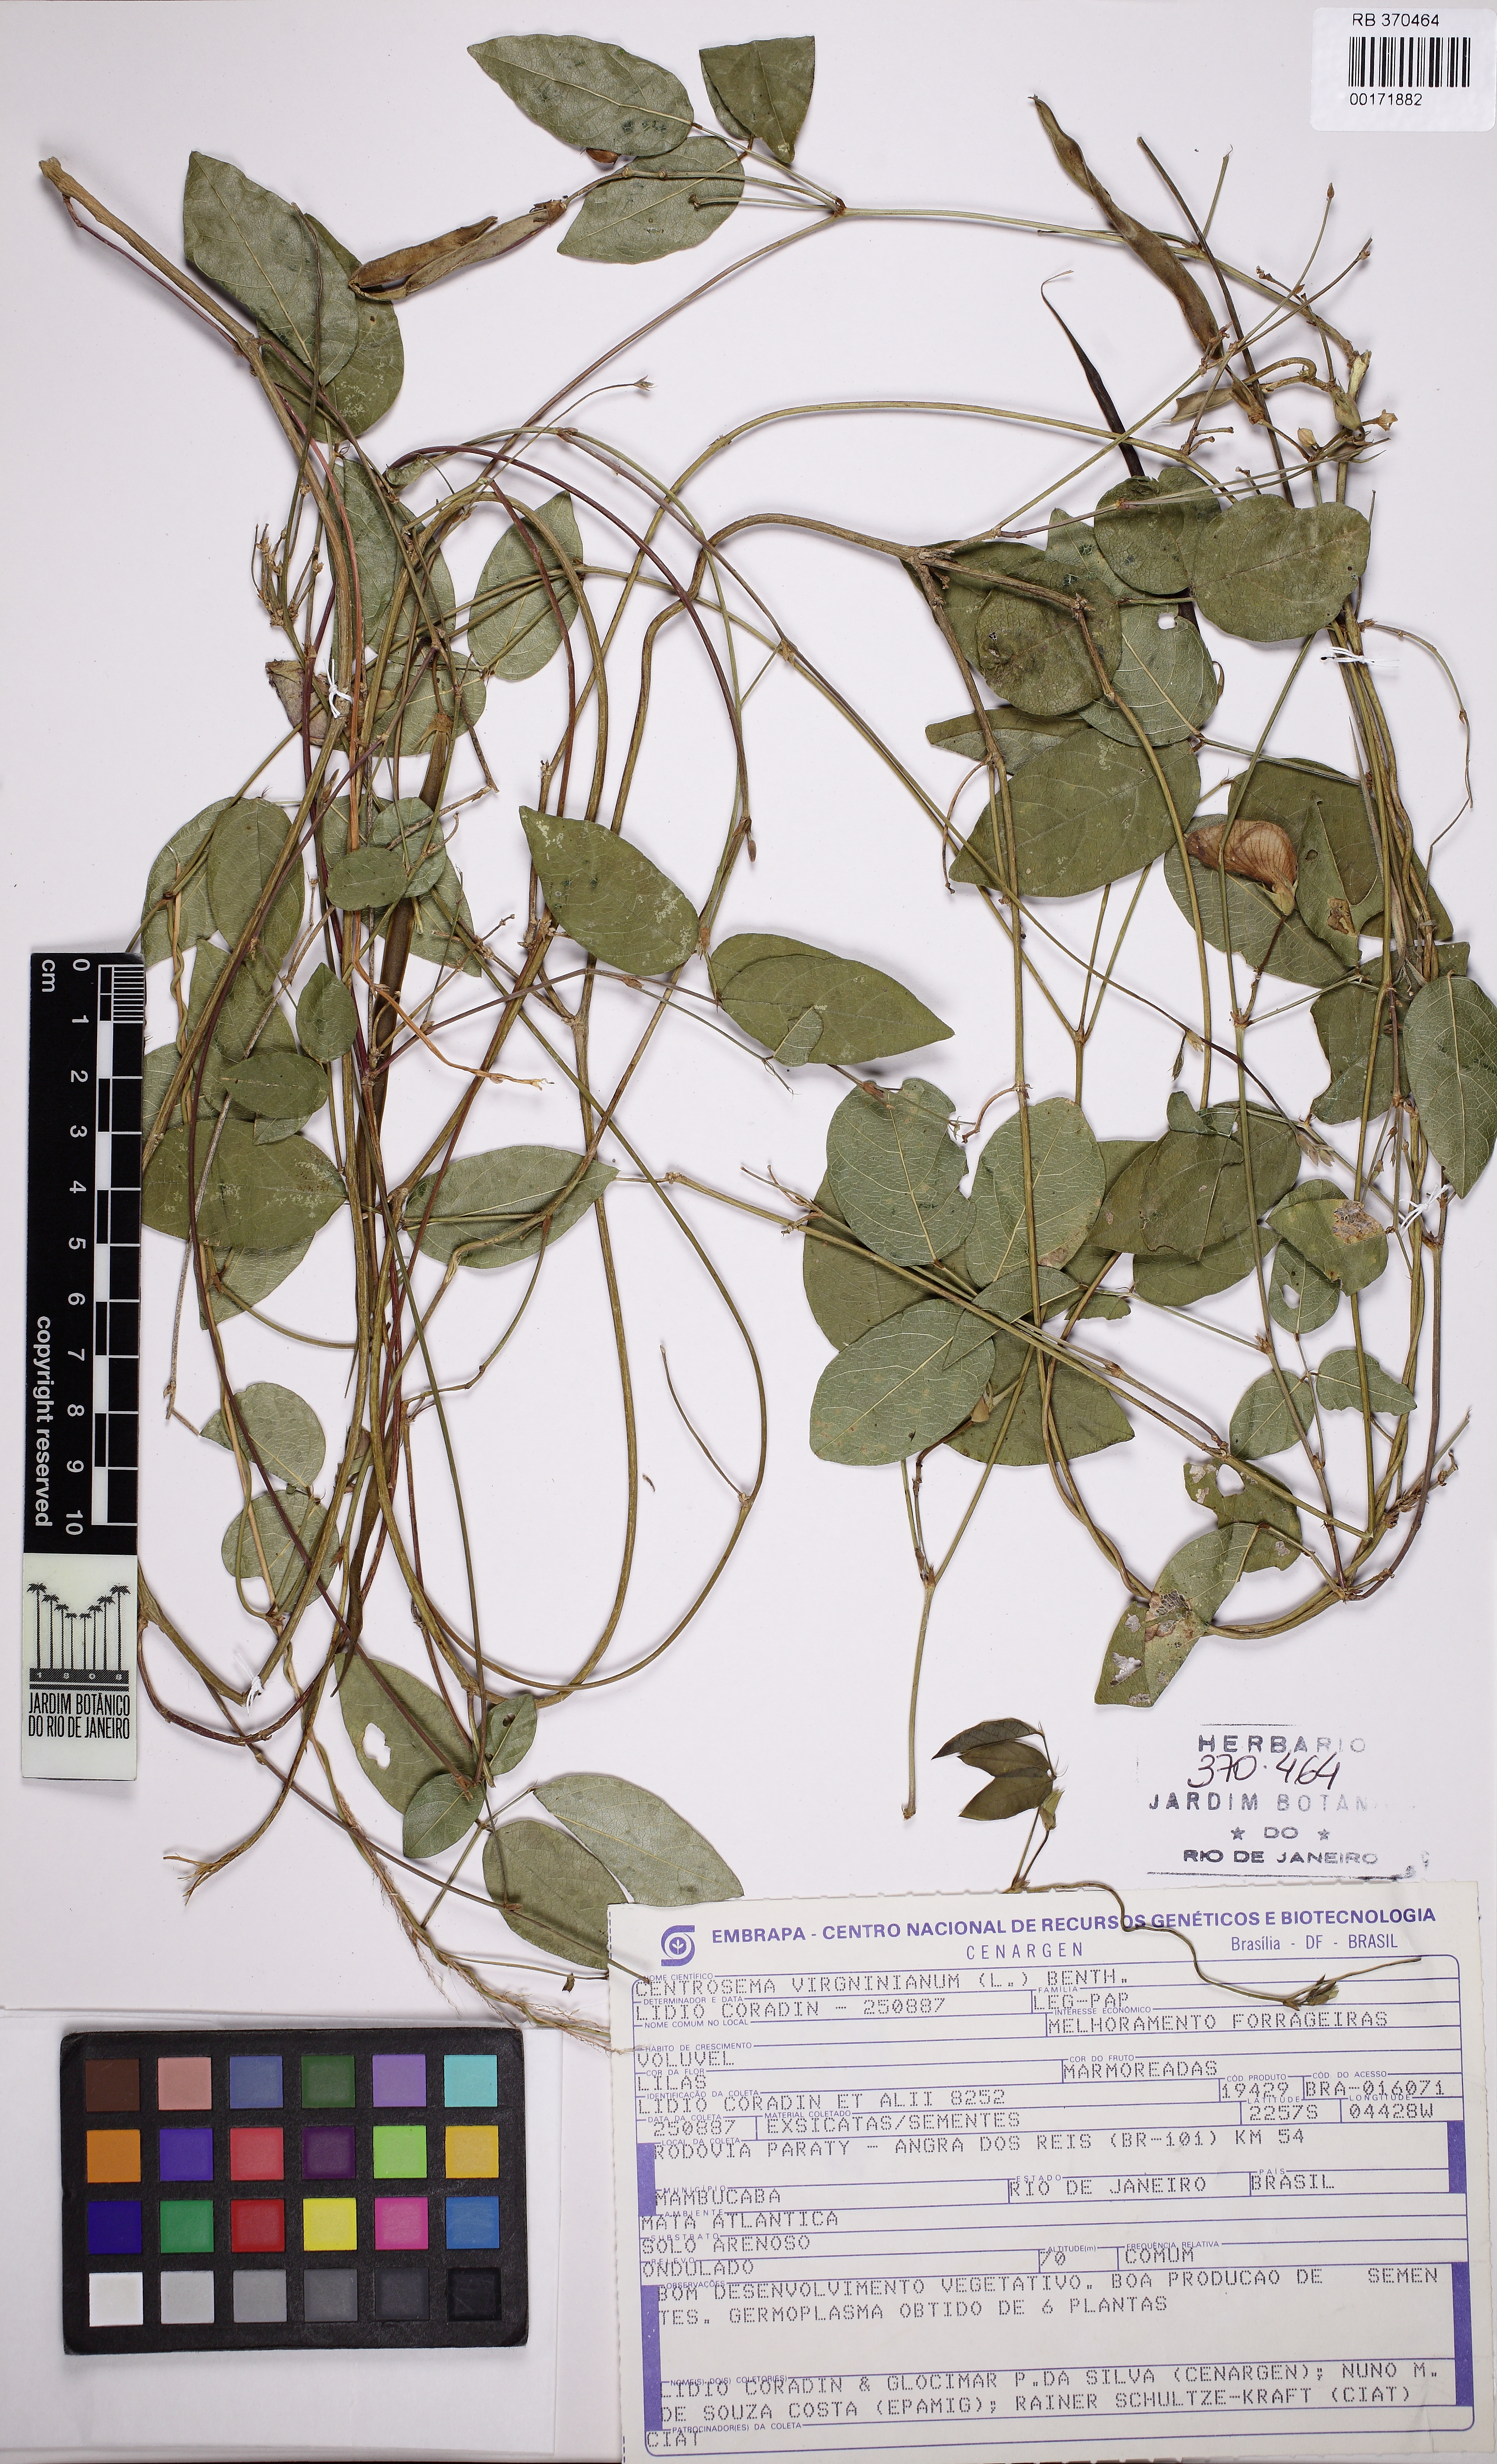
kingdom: Plantae
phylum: Tracheophyta
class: Magnoliopsida
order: Fabales
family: Fabaceae
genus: Centrosema
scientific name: Centrosema virginianum
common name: Butterfly-pea
